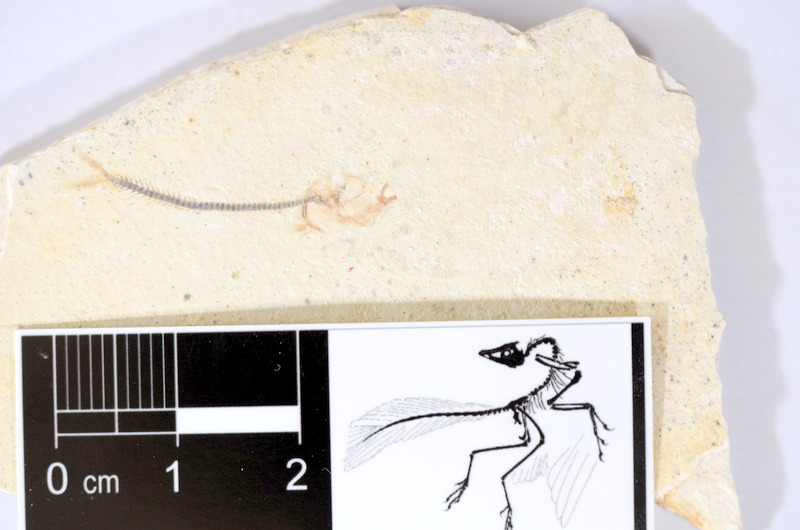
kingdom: Animalia
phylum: Chordata
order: Salmoniformes
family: Orthogonikleithridae
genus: Orthogonikleithrus
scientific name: Orthogonikleithrus hoelli
